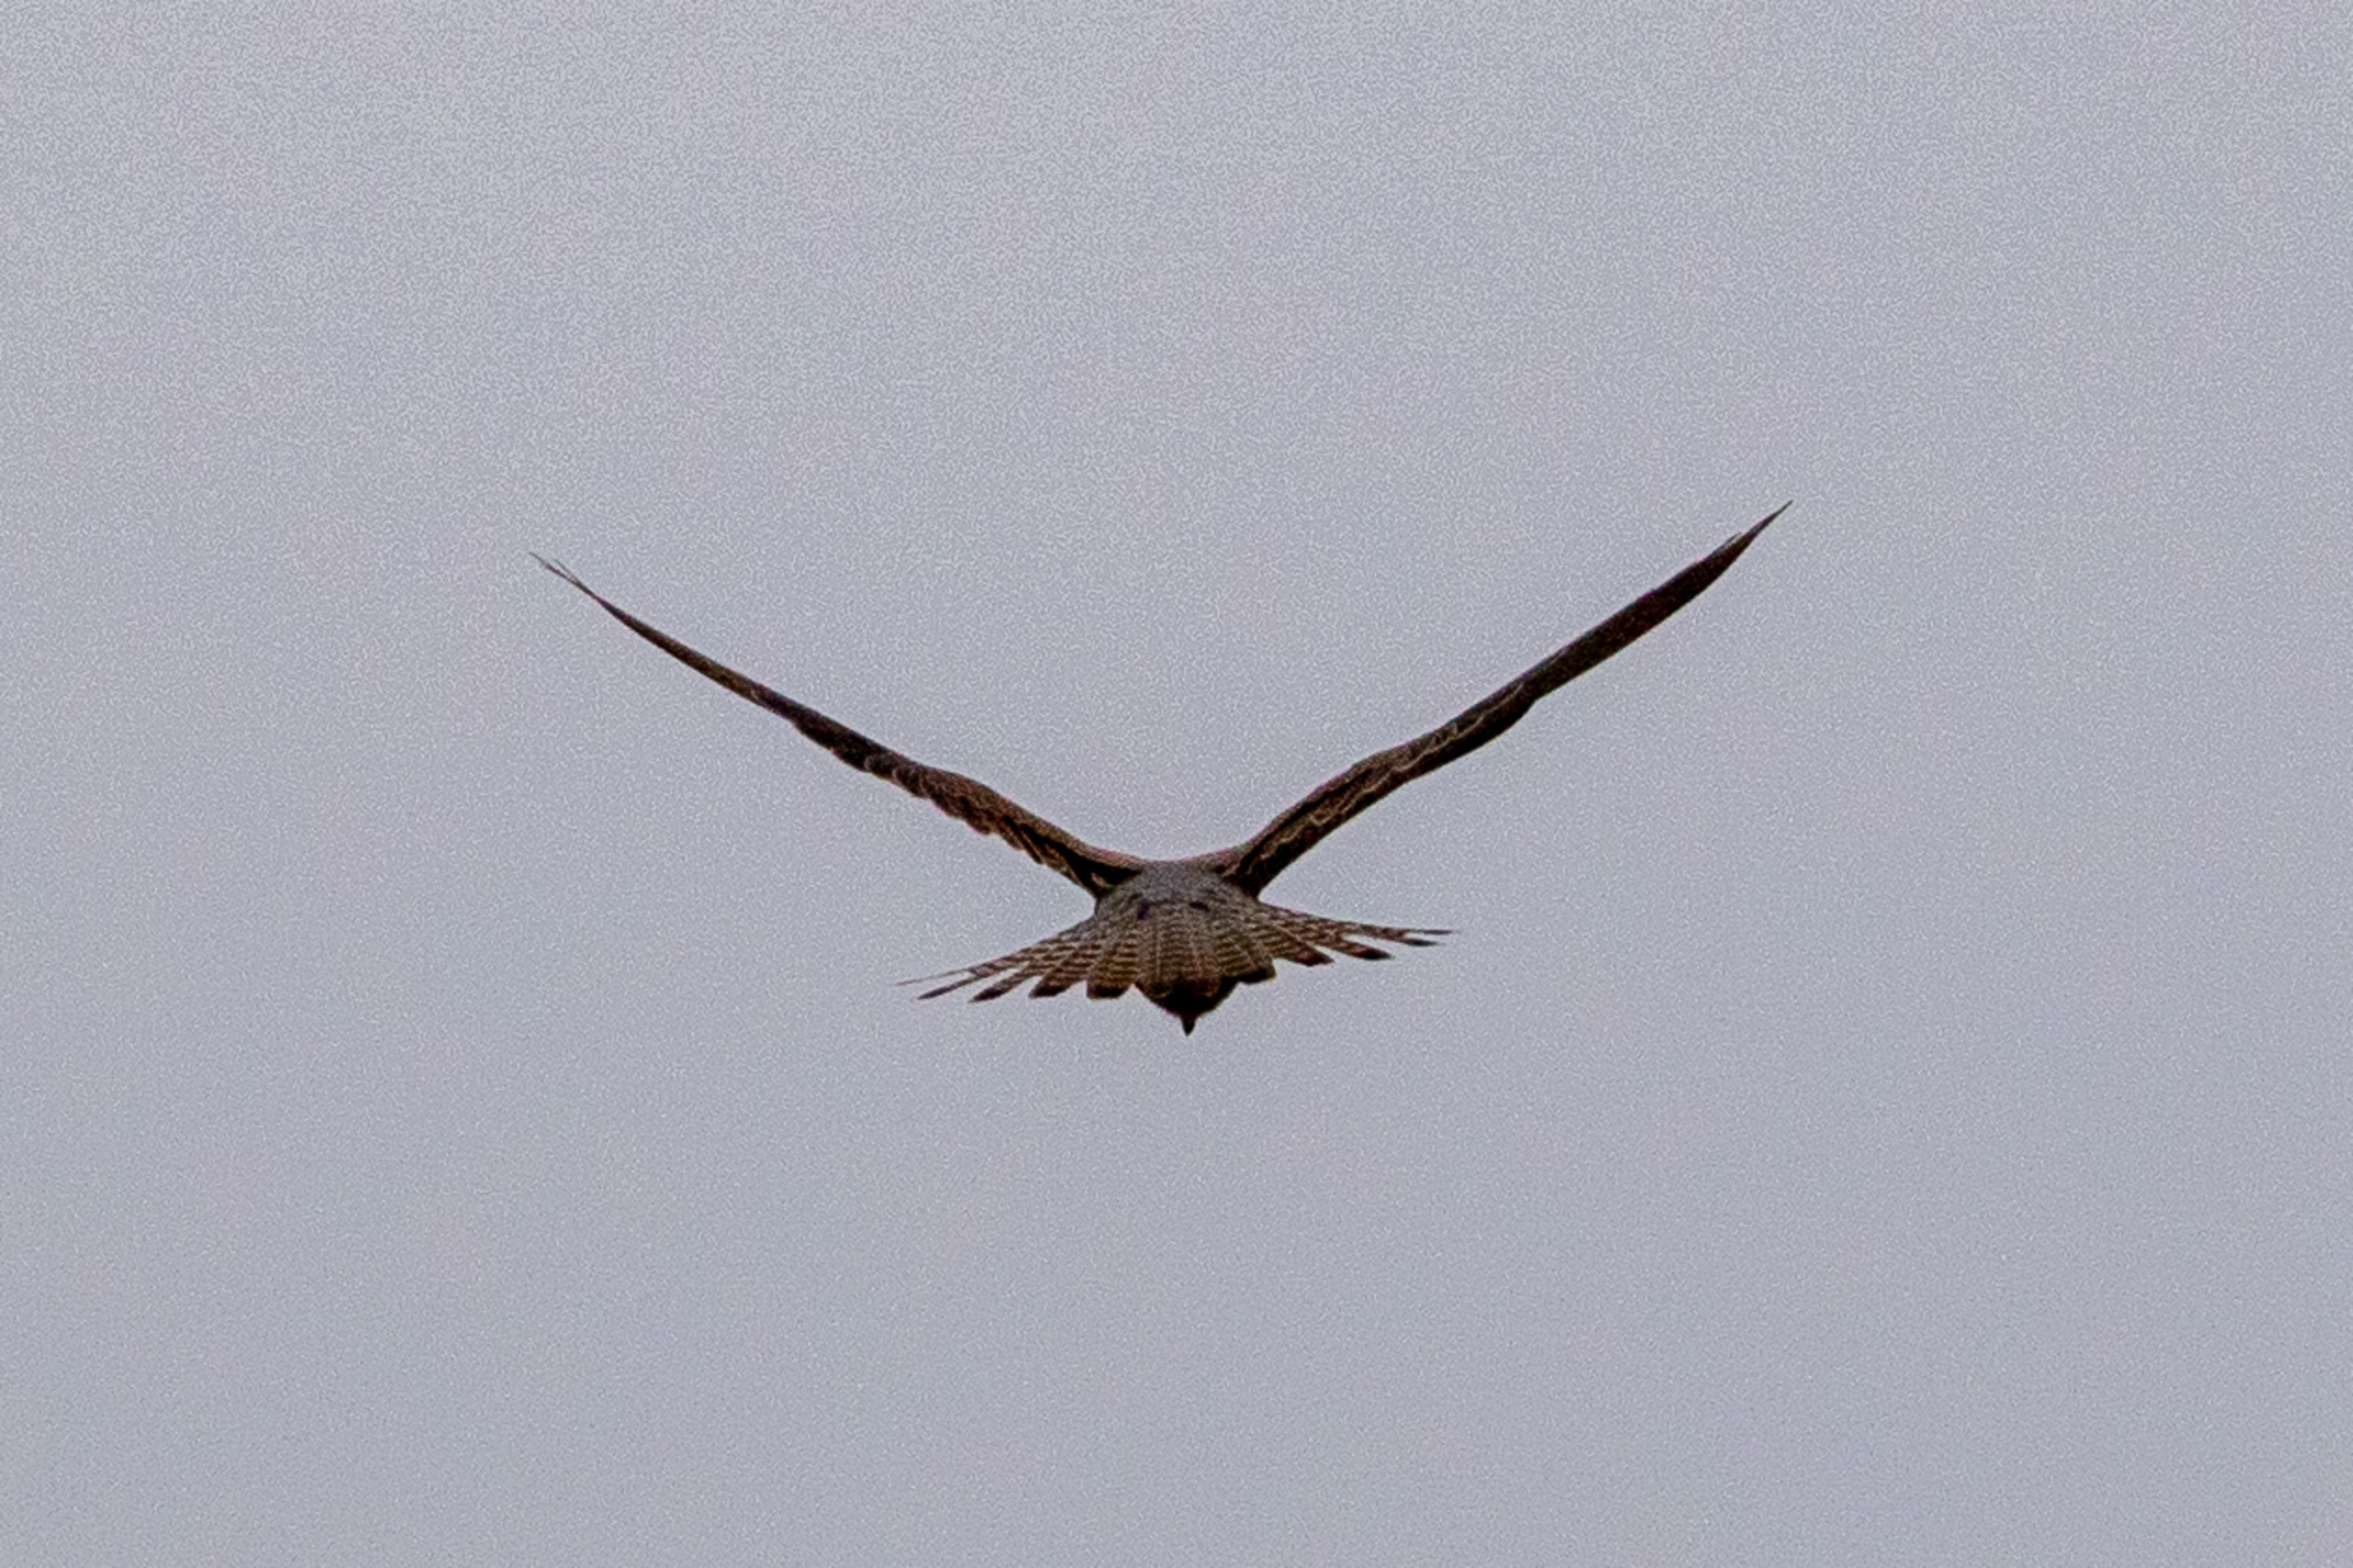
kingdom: Animalia
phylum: Chordata
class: Aves
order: Falconiformes
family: Falconidae
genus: Falco
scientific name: Falco tinnunculus
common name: Tårnfalk
